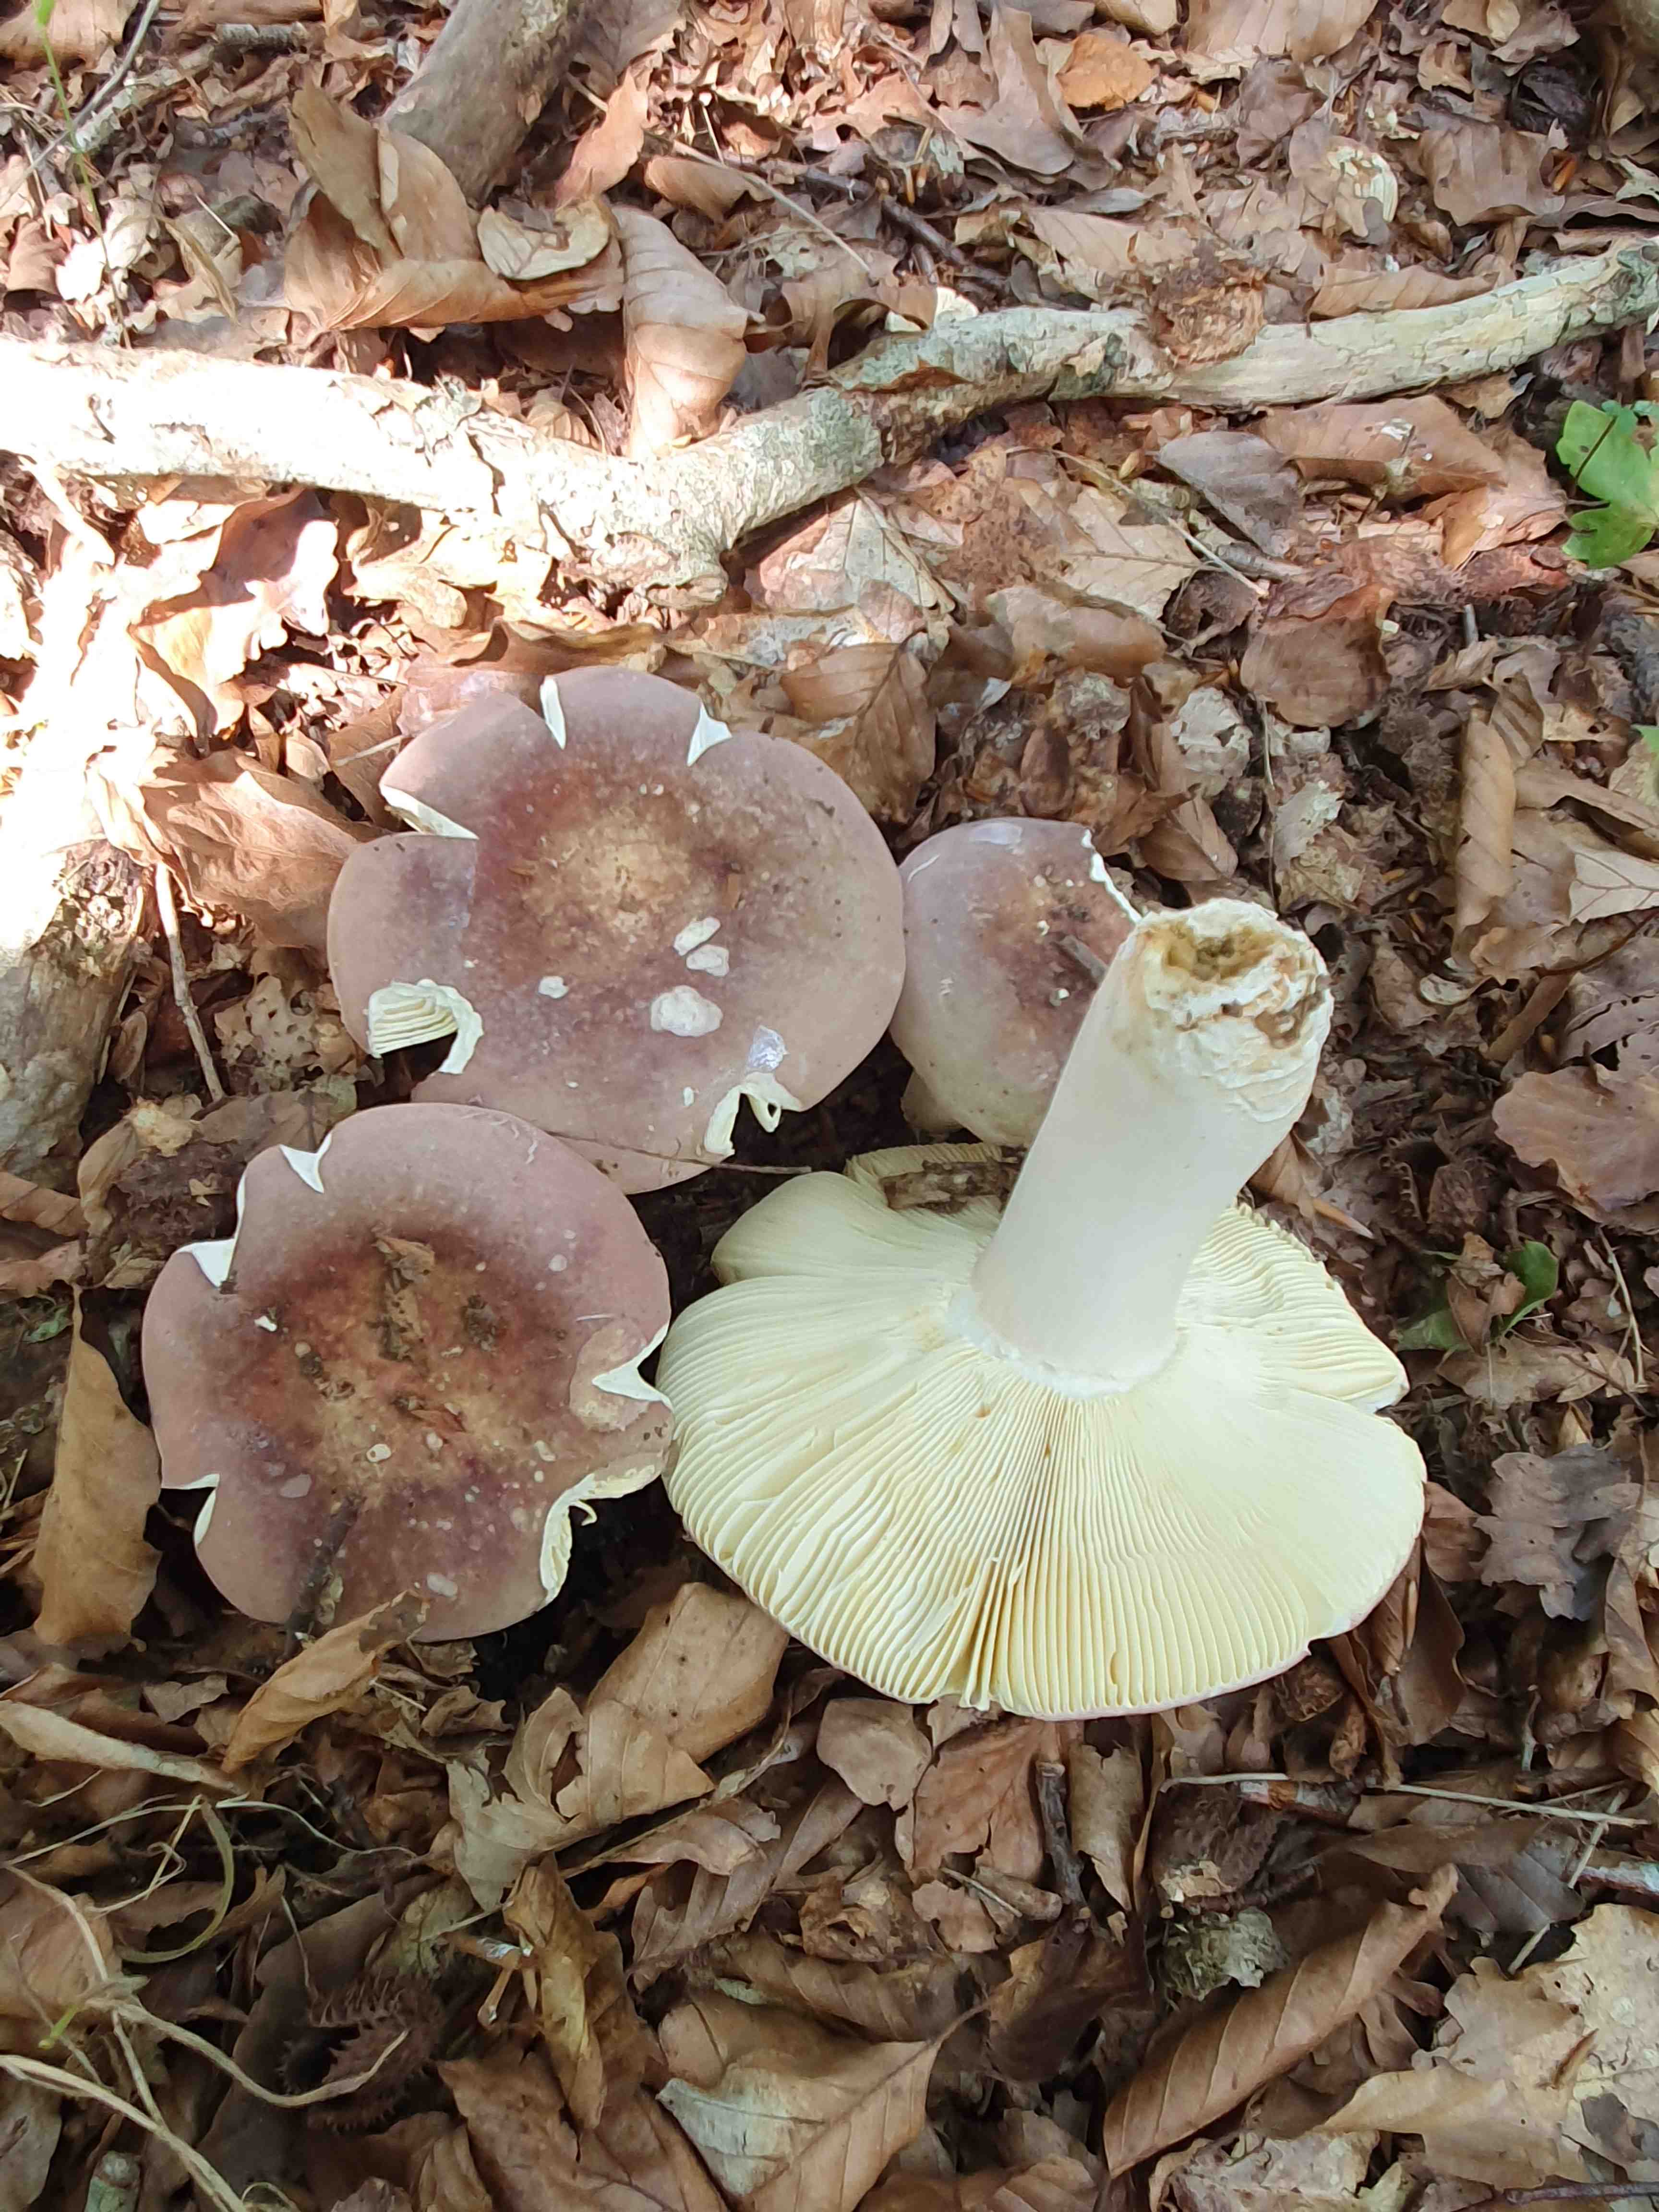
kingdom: Fungi
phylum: Basidiomycota
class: Agaricomycetes
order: Russulales
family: Russulaceae
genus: Russula
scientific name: Russula olivacea
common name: stor skørhat
